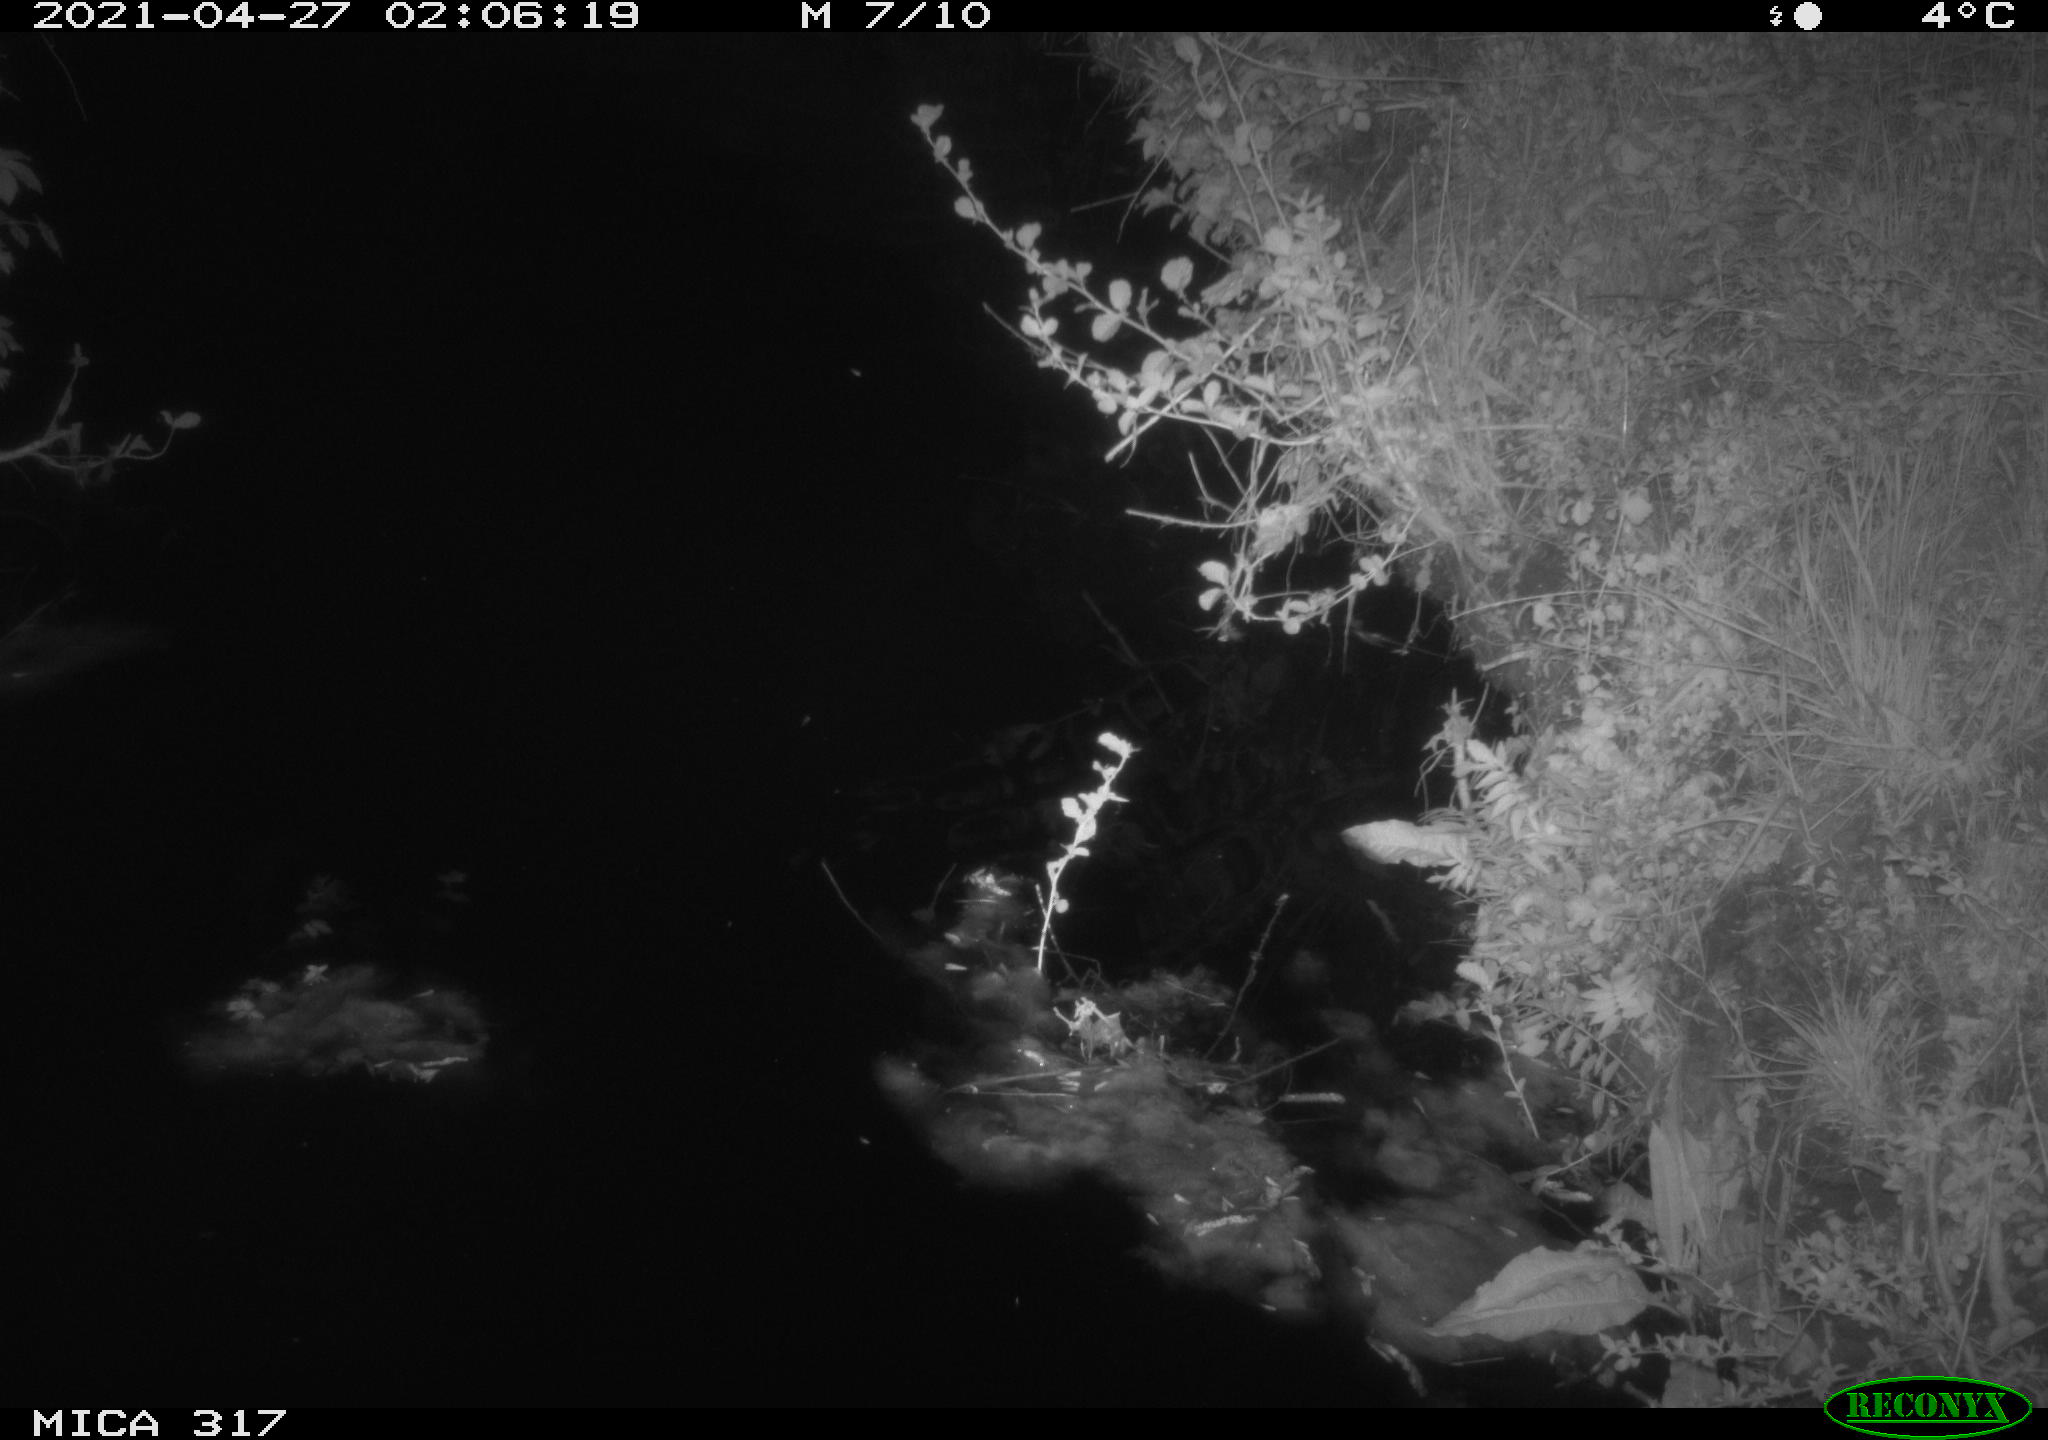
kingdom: Animalia
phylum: Chordata
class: Aves
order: Anseriformes
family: Anatidae
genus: Anas
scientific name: Anas
